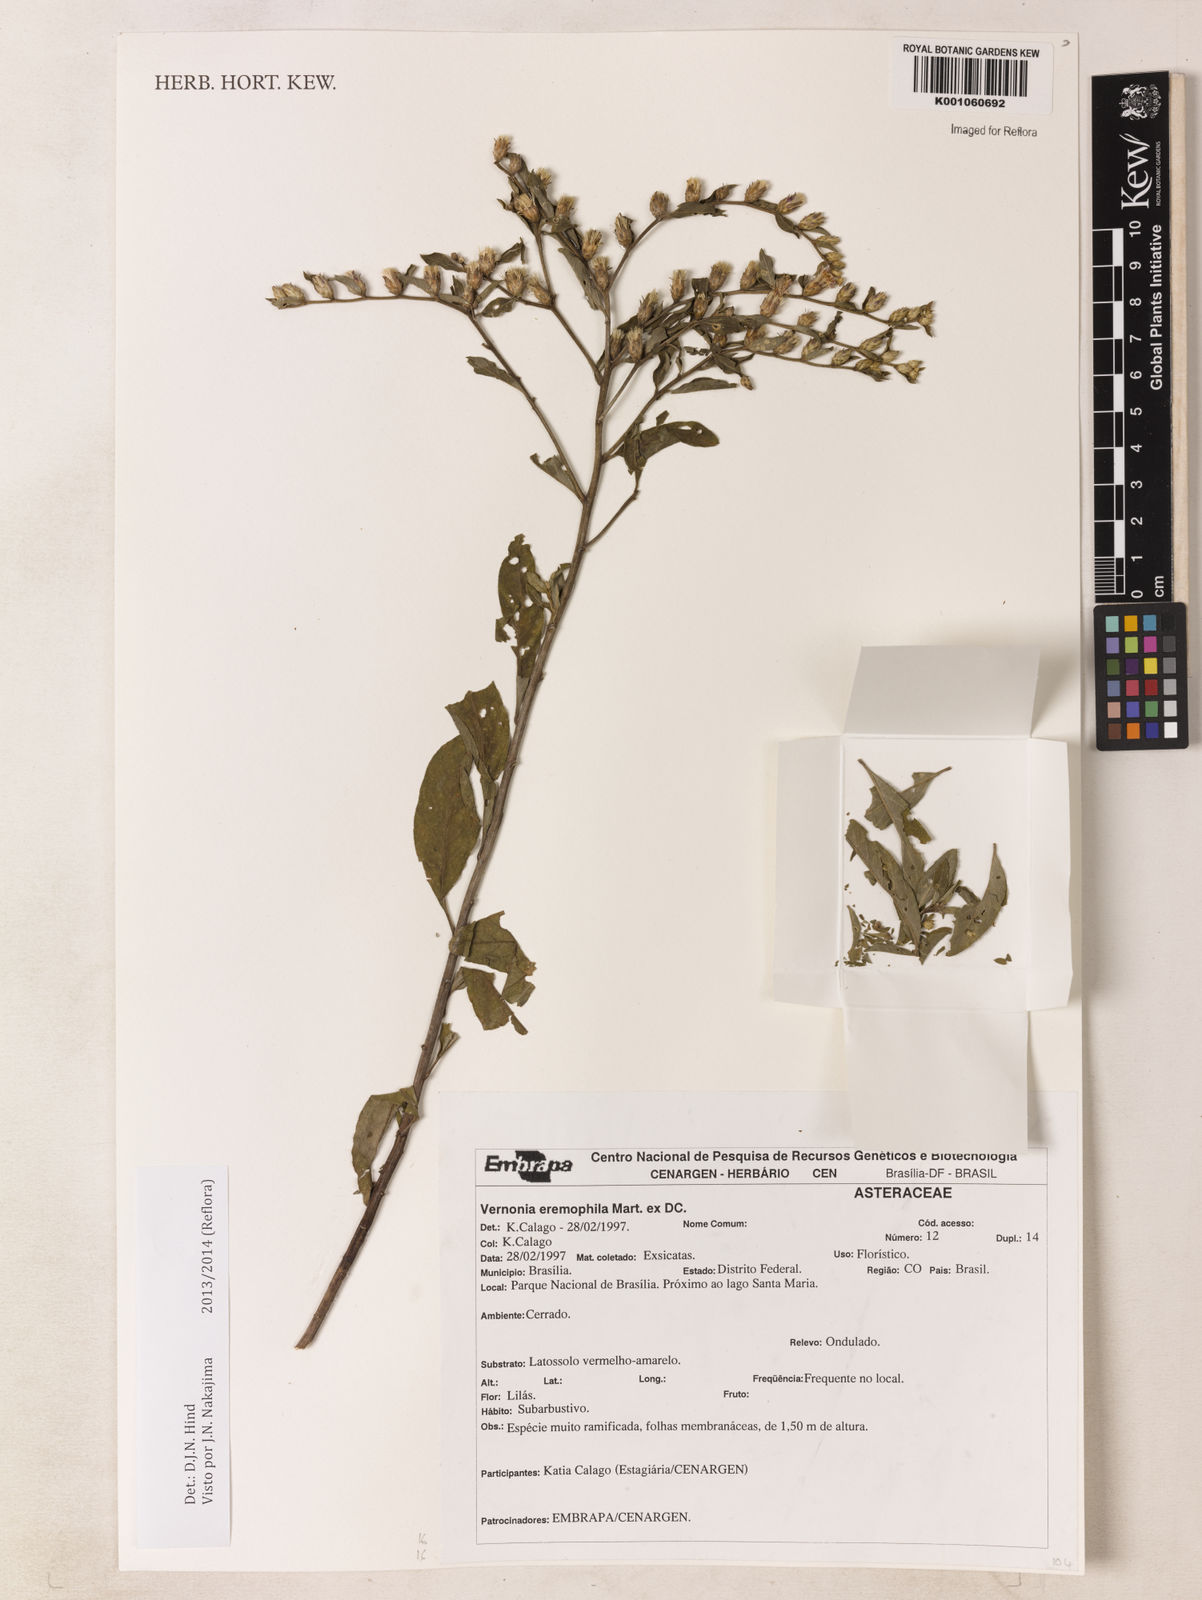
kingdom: Plantae
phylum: Tracheophyta
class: Magnoliopsida
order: Asterales
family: Asteraceae
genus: Lepidaploa
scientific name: Lepidaploa rufogrisea
